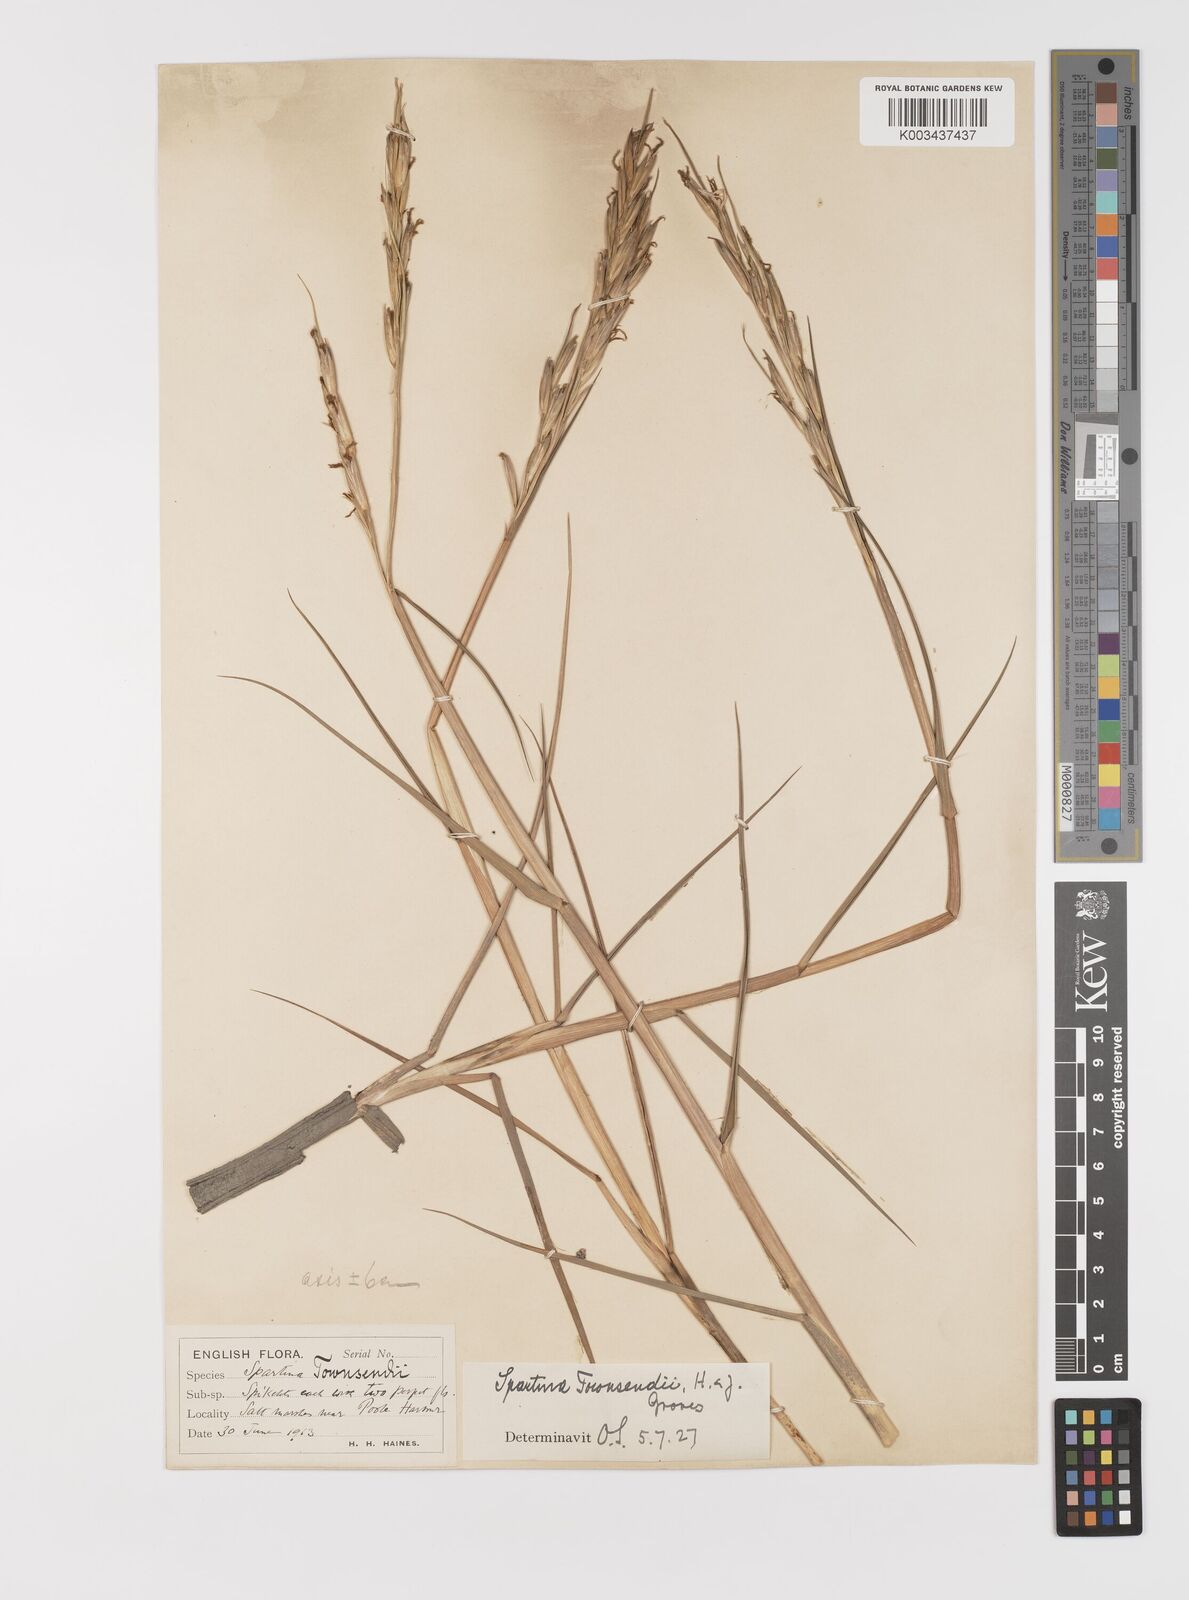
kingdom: Plantae
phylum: Tracheophyta
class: Liliopsida
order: Poales
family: Poaceae
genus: Sporobolus
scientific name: Sporobolus anglicus
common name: English cordgrass
